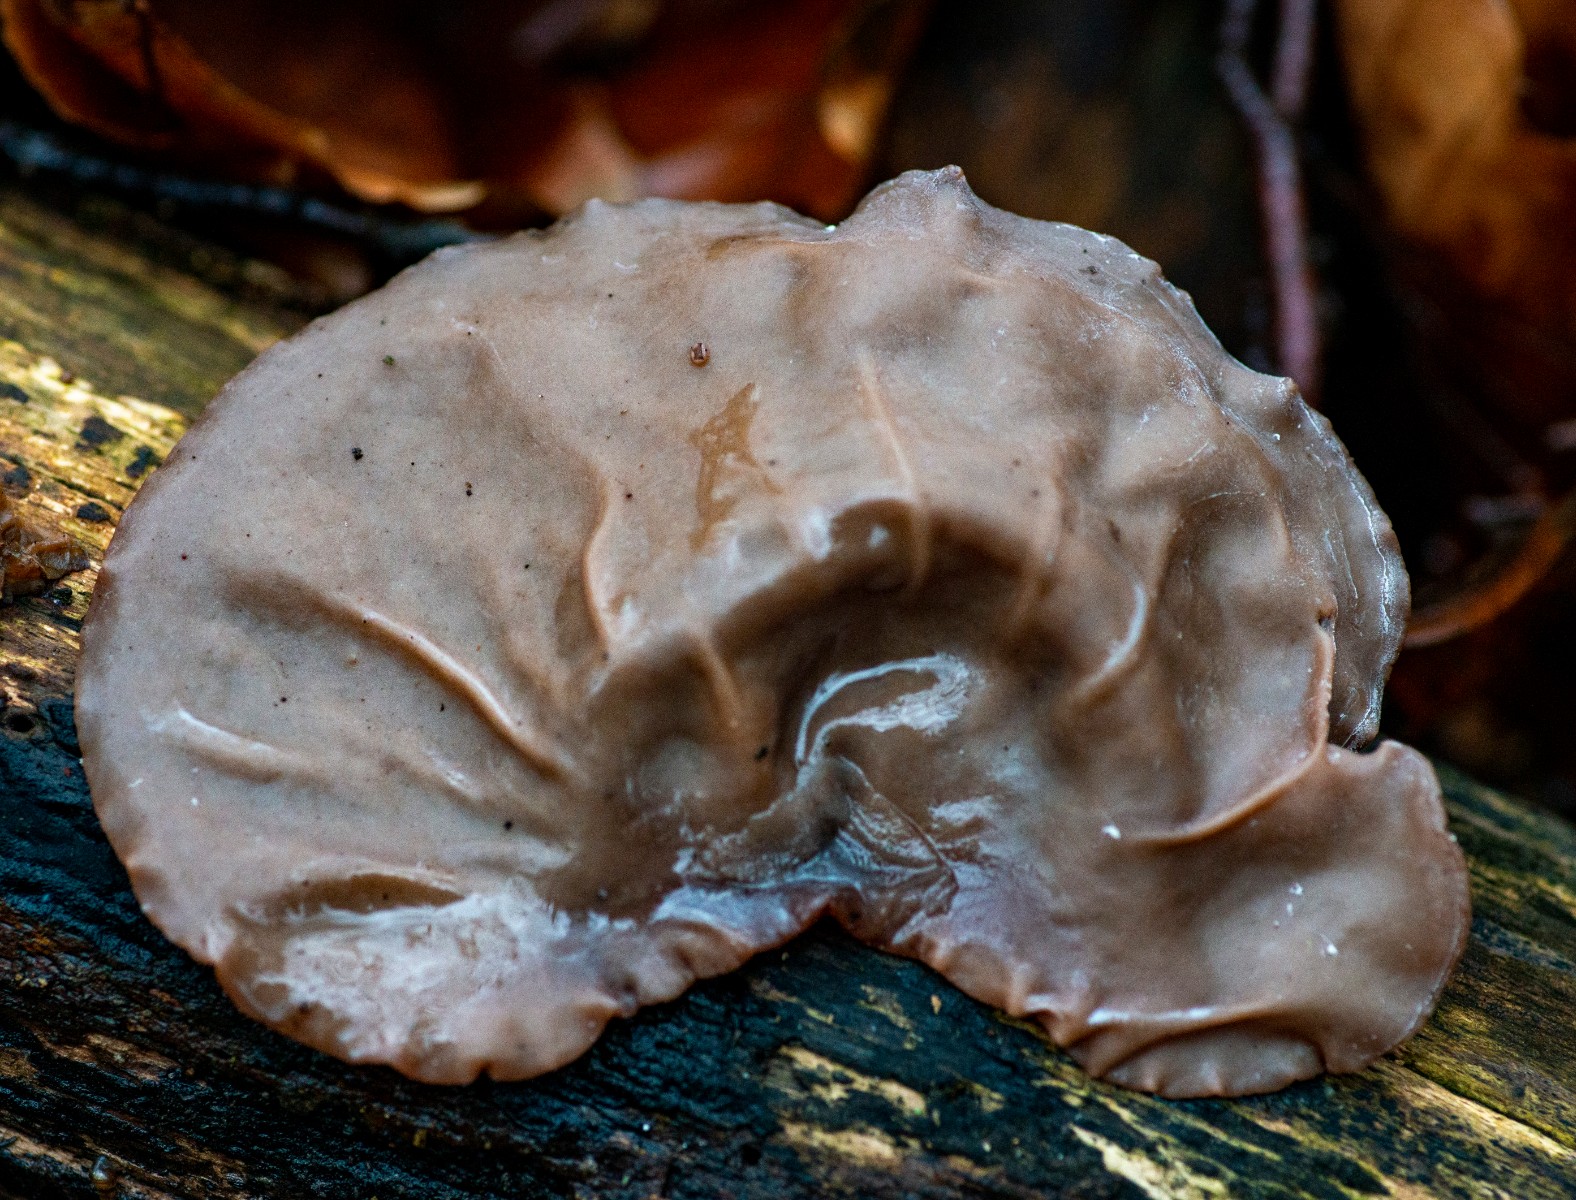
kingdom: Fungi
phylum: Basidiomycota
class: Agaricomycetes
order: Auriculariales
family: Auriculariaceae
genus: Auricularia
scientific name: Auricularia auricula-judae
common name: almindelig judasøre
